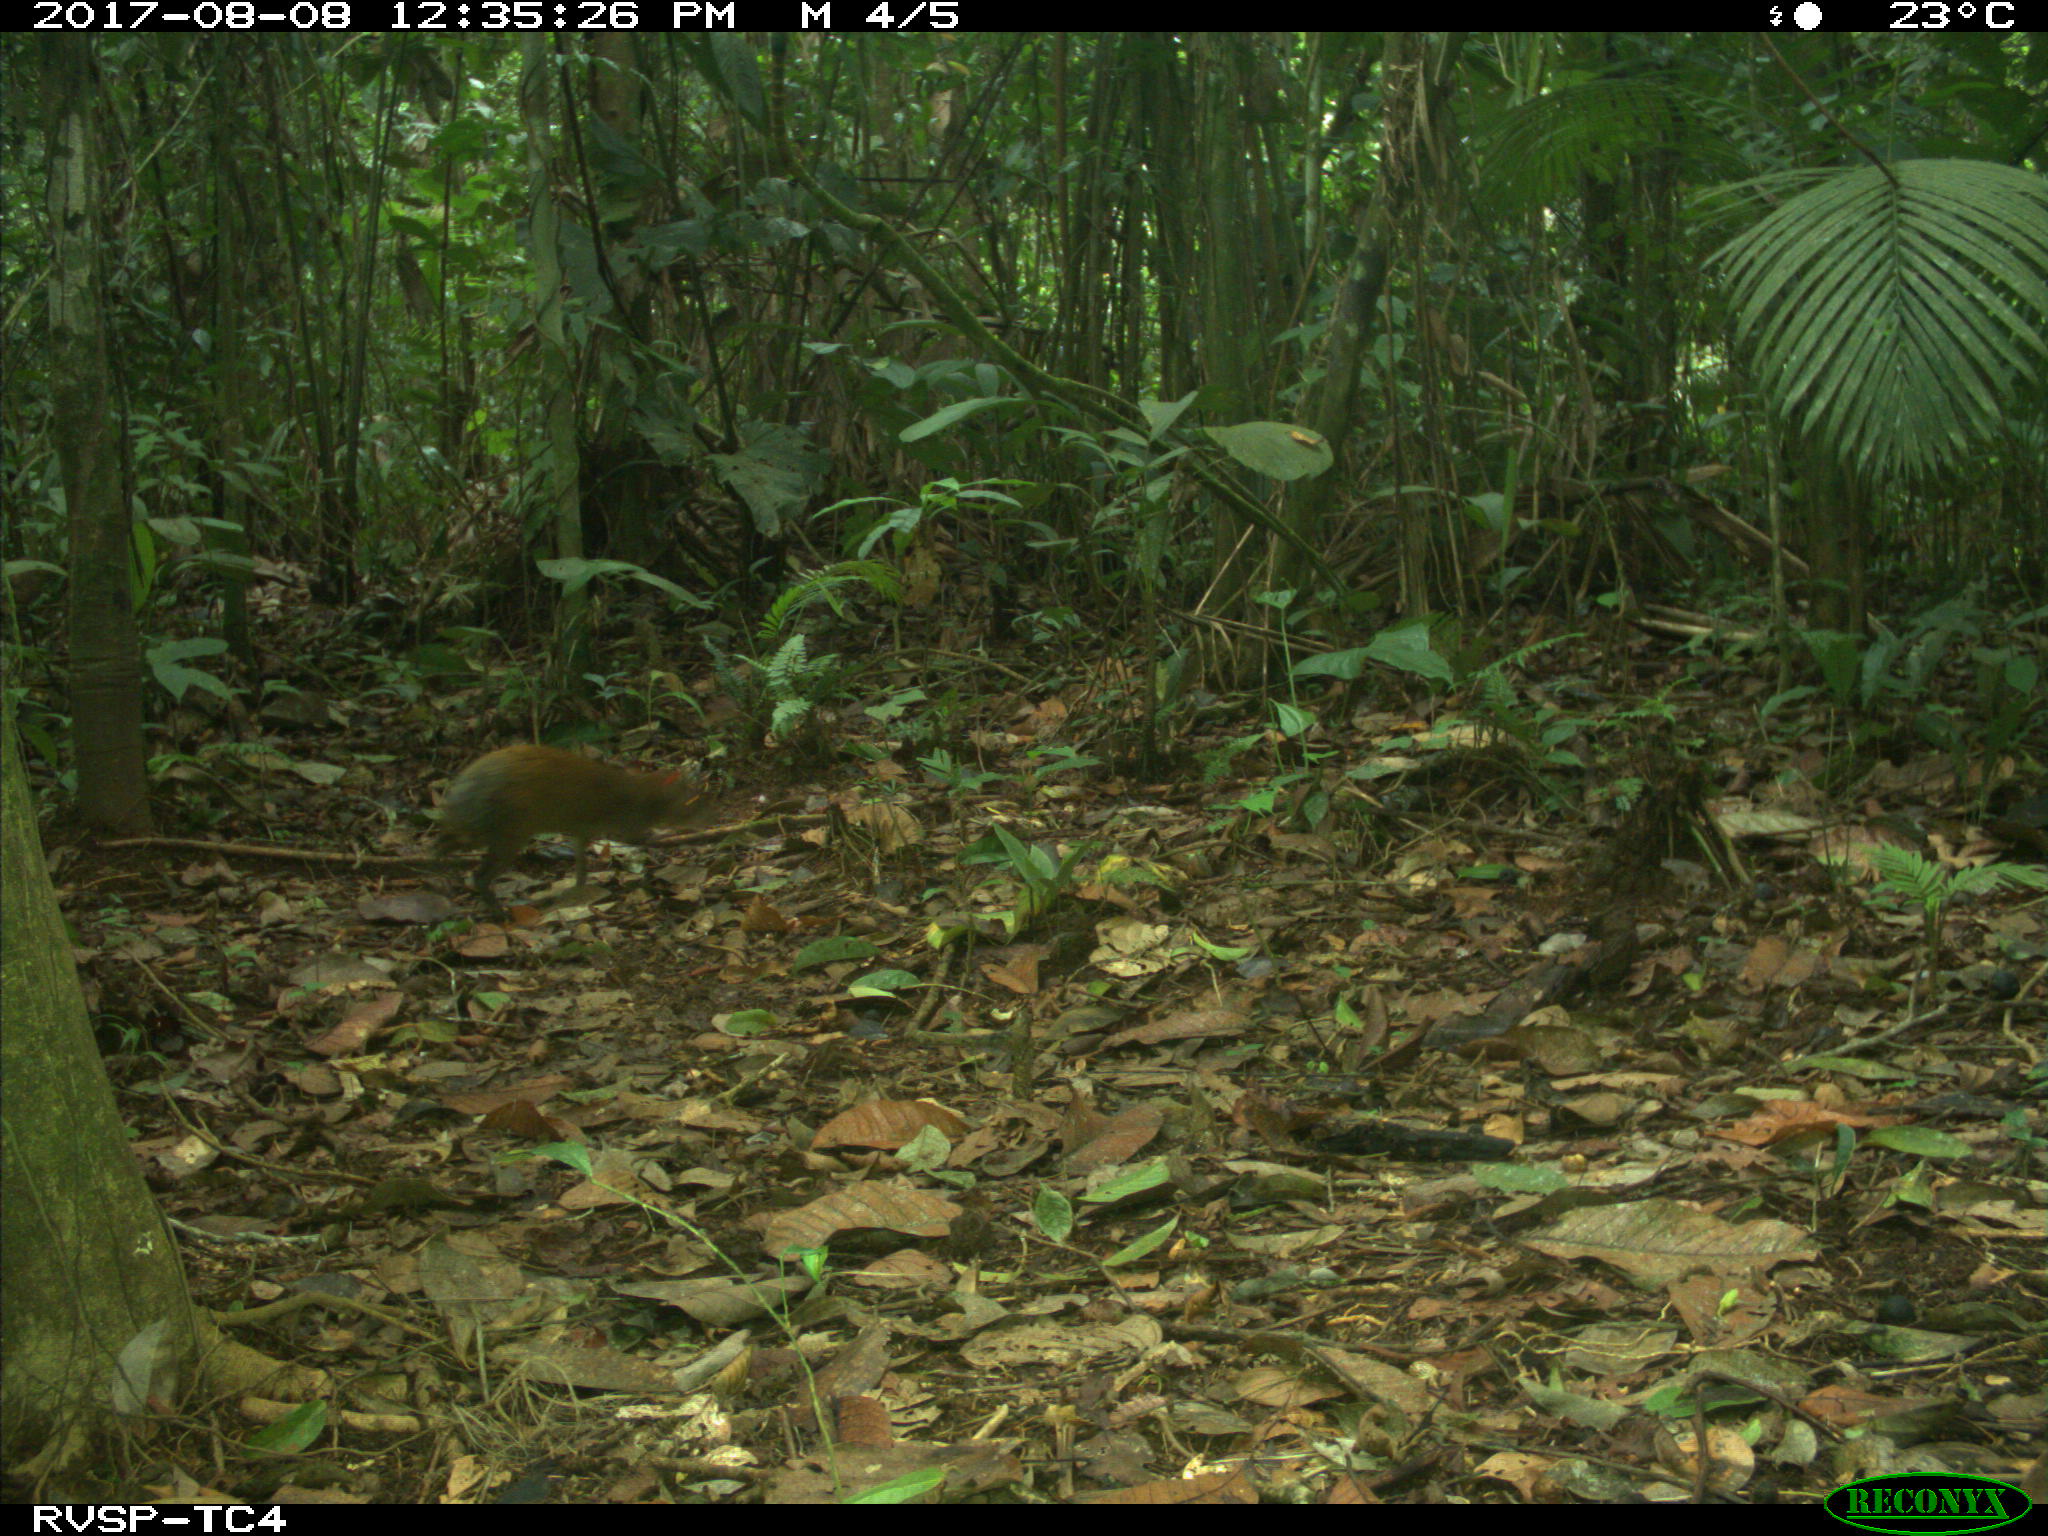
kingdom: Animalia
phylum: Chordata
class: Mammalia
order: Rodentia
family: Dasyproctidae
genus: Dasyprocta
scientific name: Dasyprocta punctata
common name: Central american agouti
